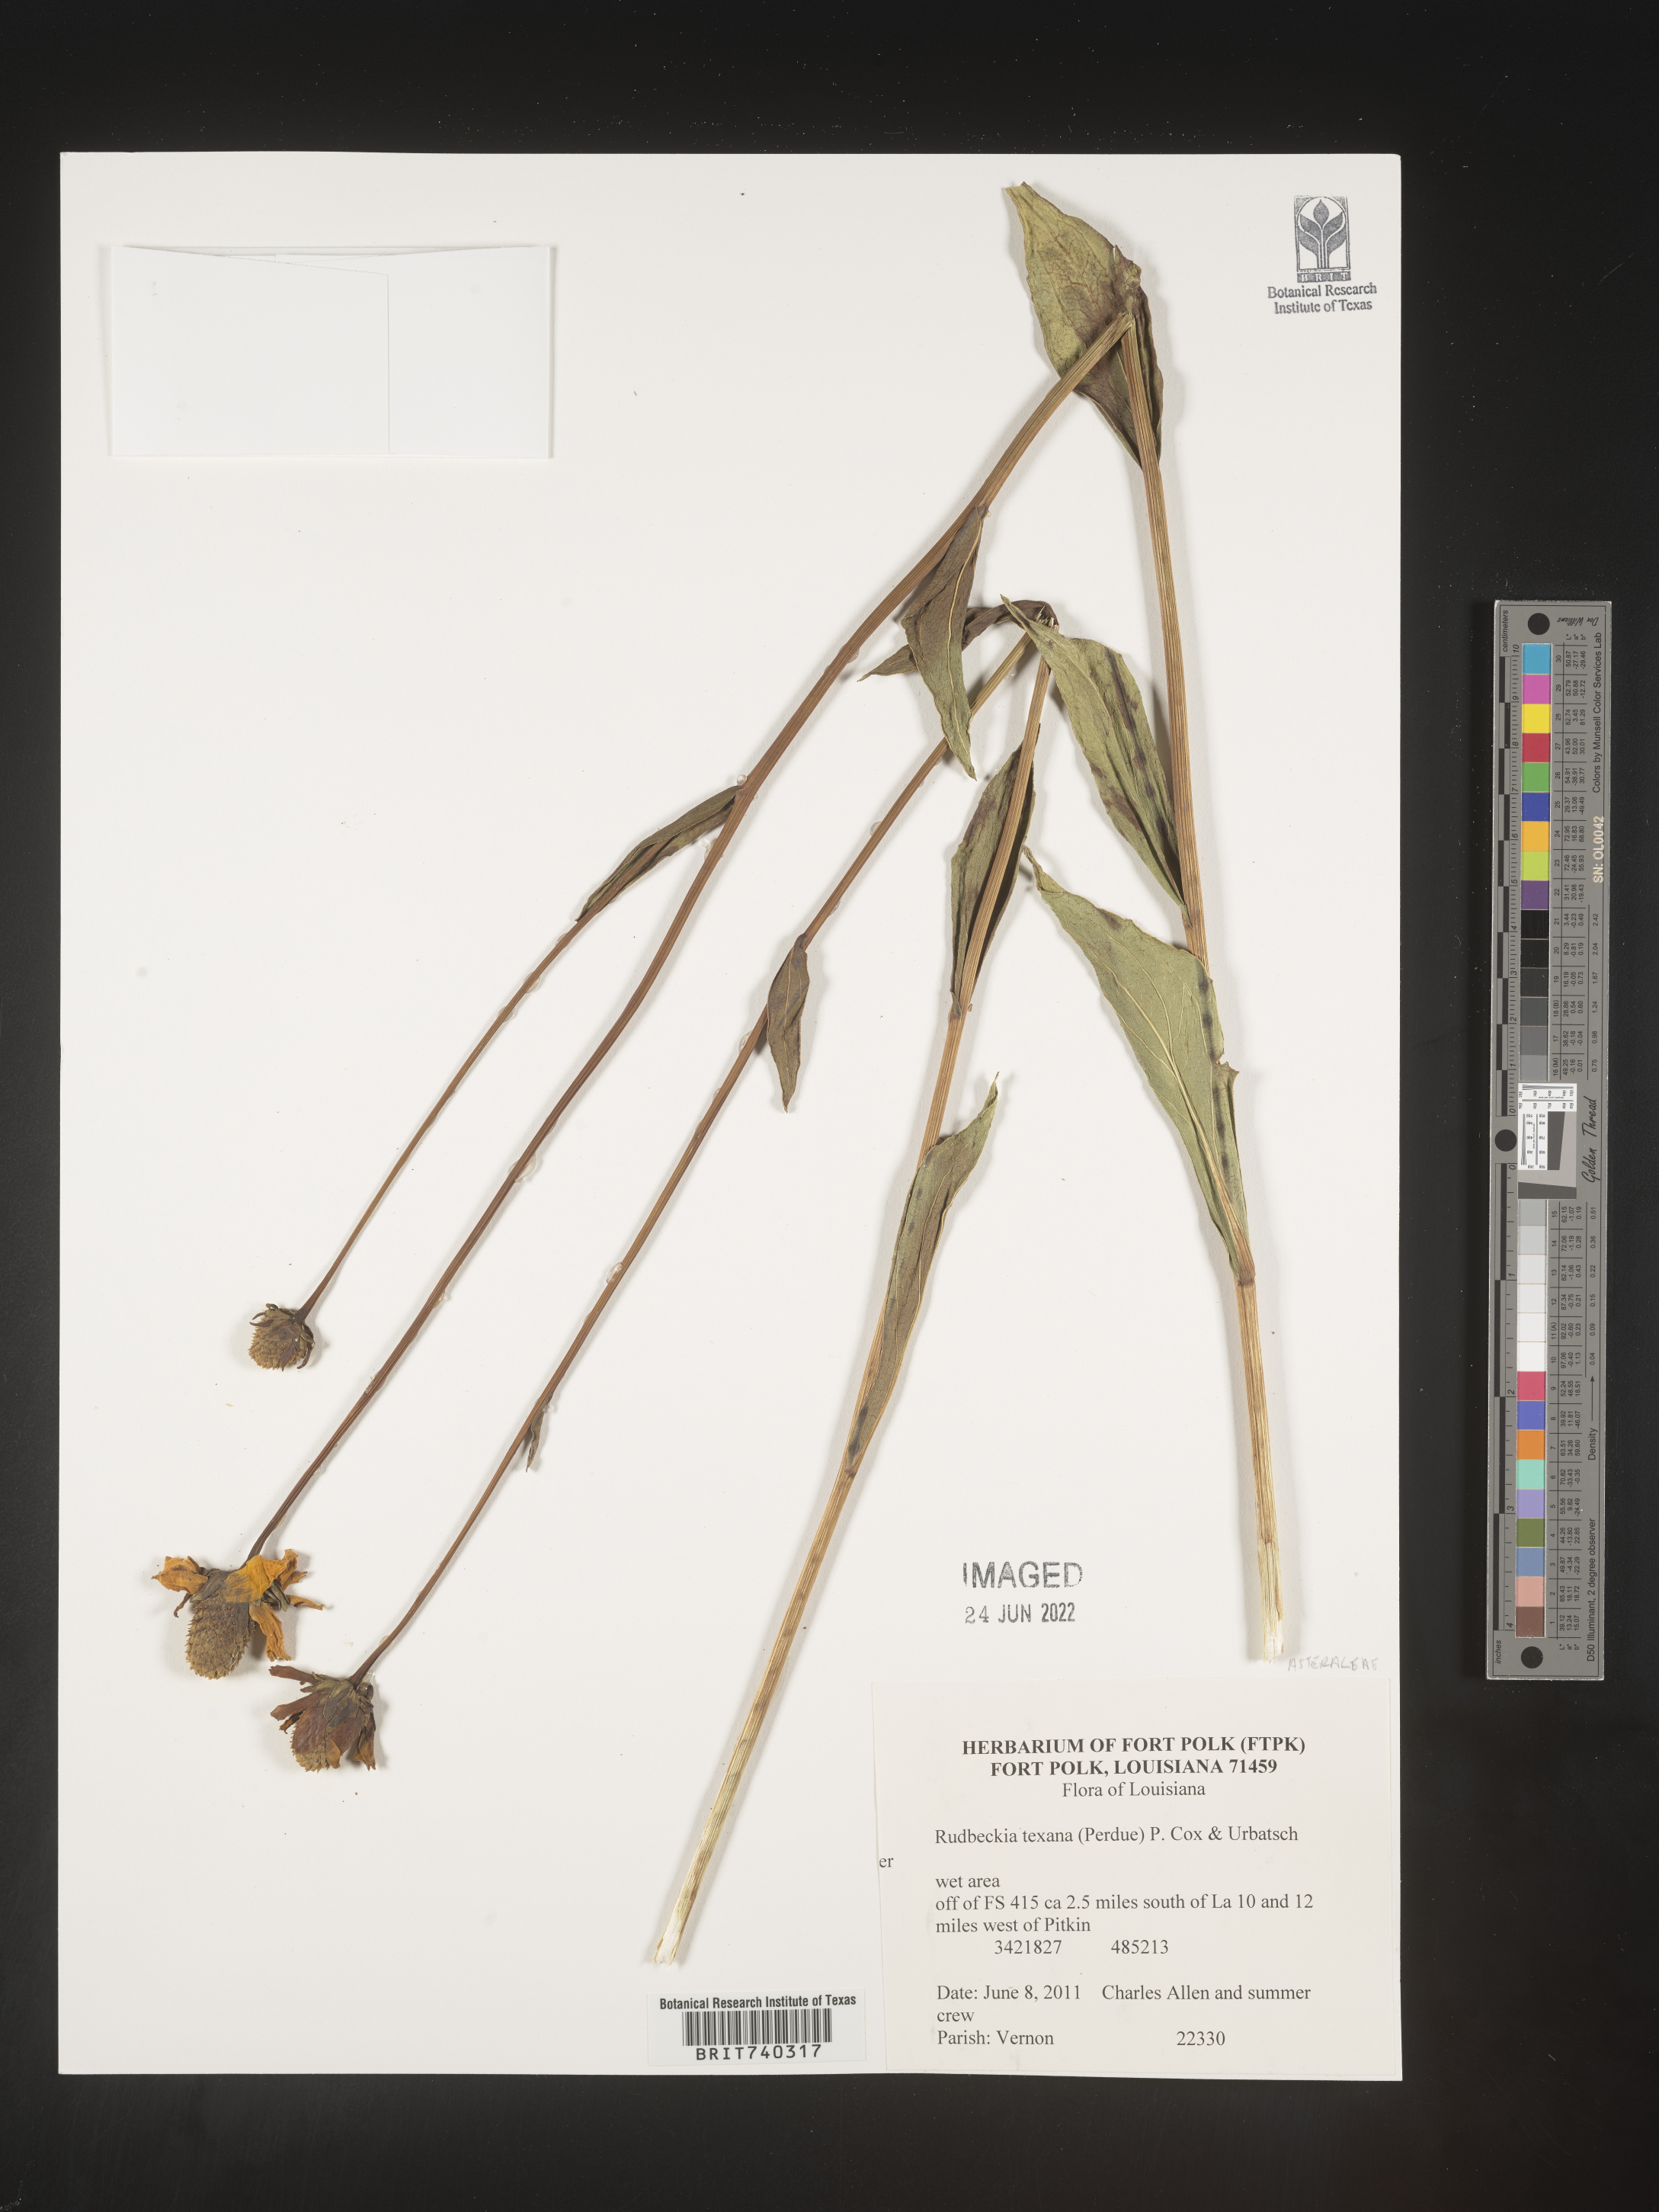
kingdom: Plantae
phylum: Tracheophyta
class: Magnoliopsida
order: Asterales
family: Asteraceae
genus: Rudbeckia
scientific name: Rudbeckia texana
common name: Texas coneflower
